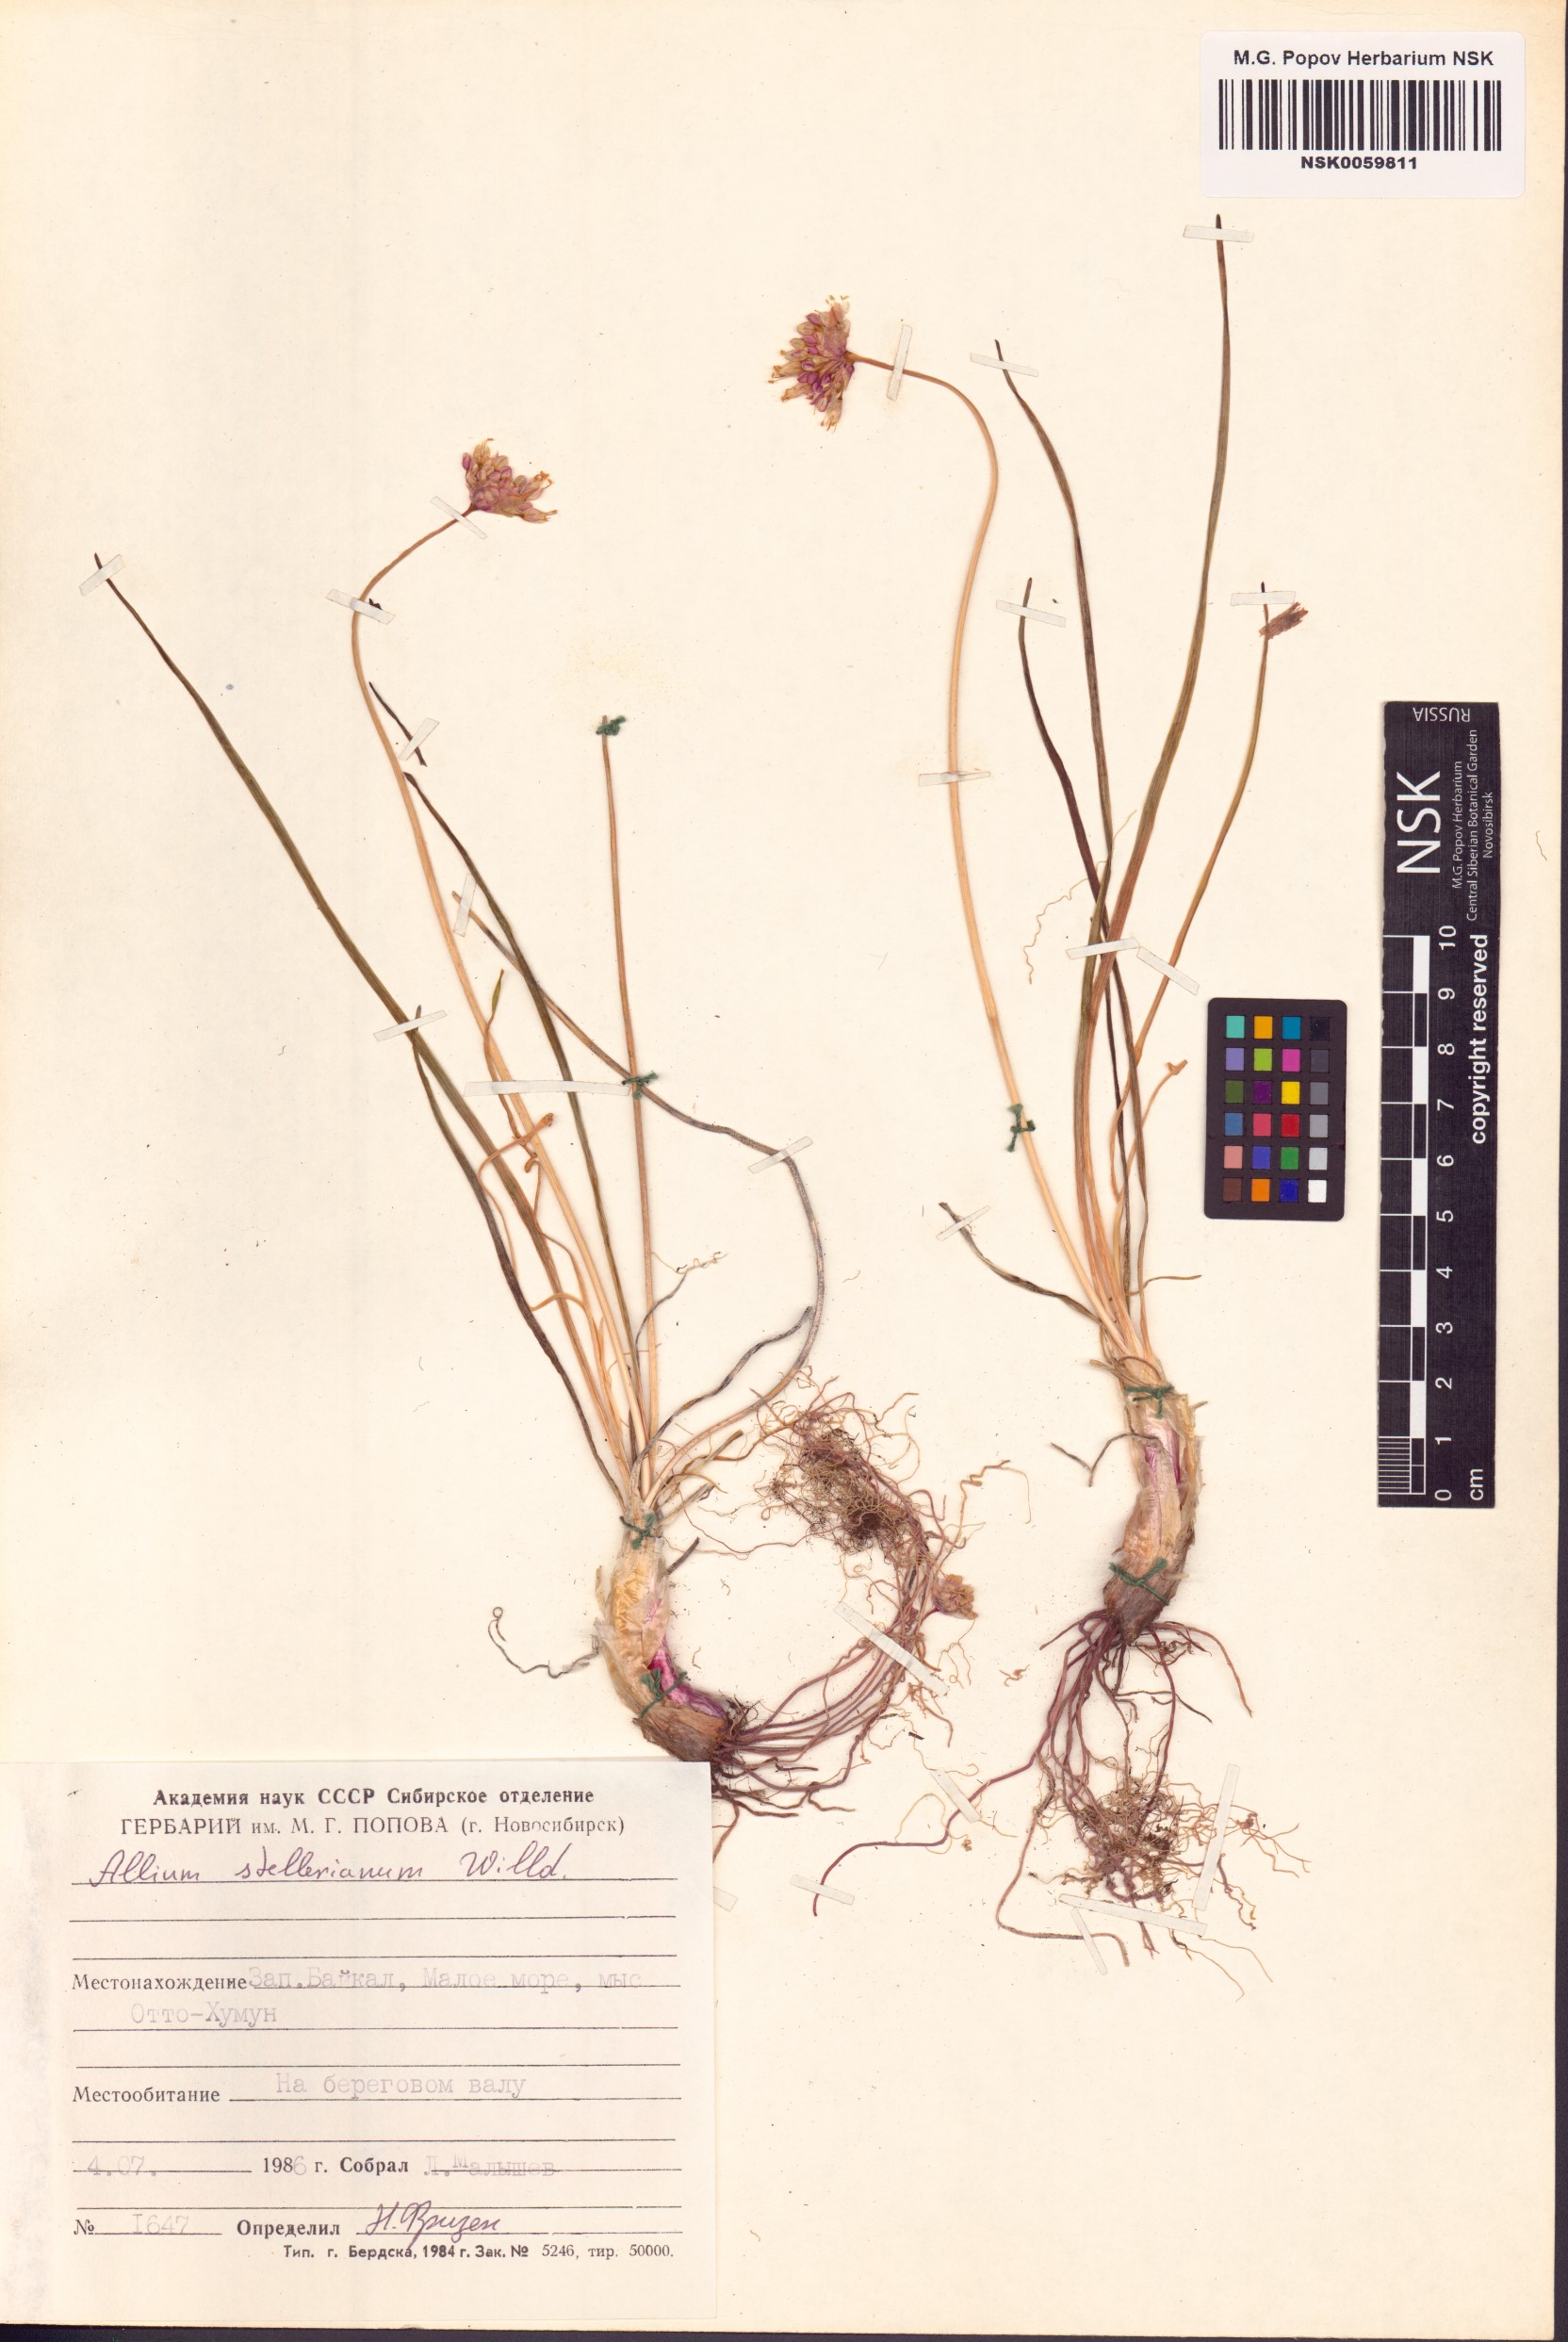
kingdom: Plantae
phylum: Tracheophyta
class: Liliopsida
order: Asparagales
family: Amaryllidaceae
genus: Allium
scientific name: Allium stellerianum
